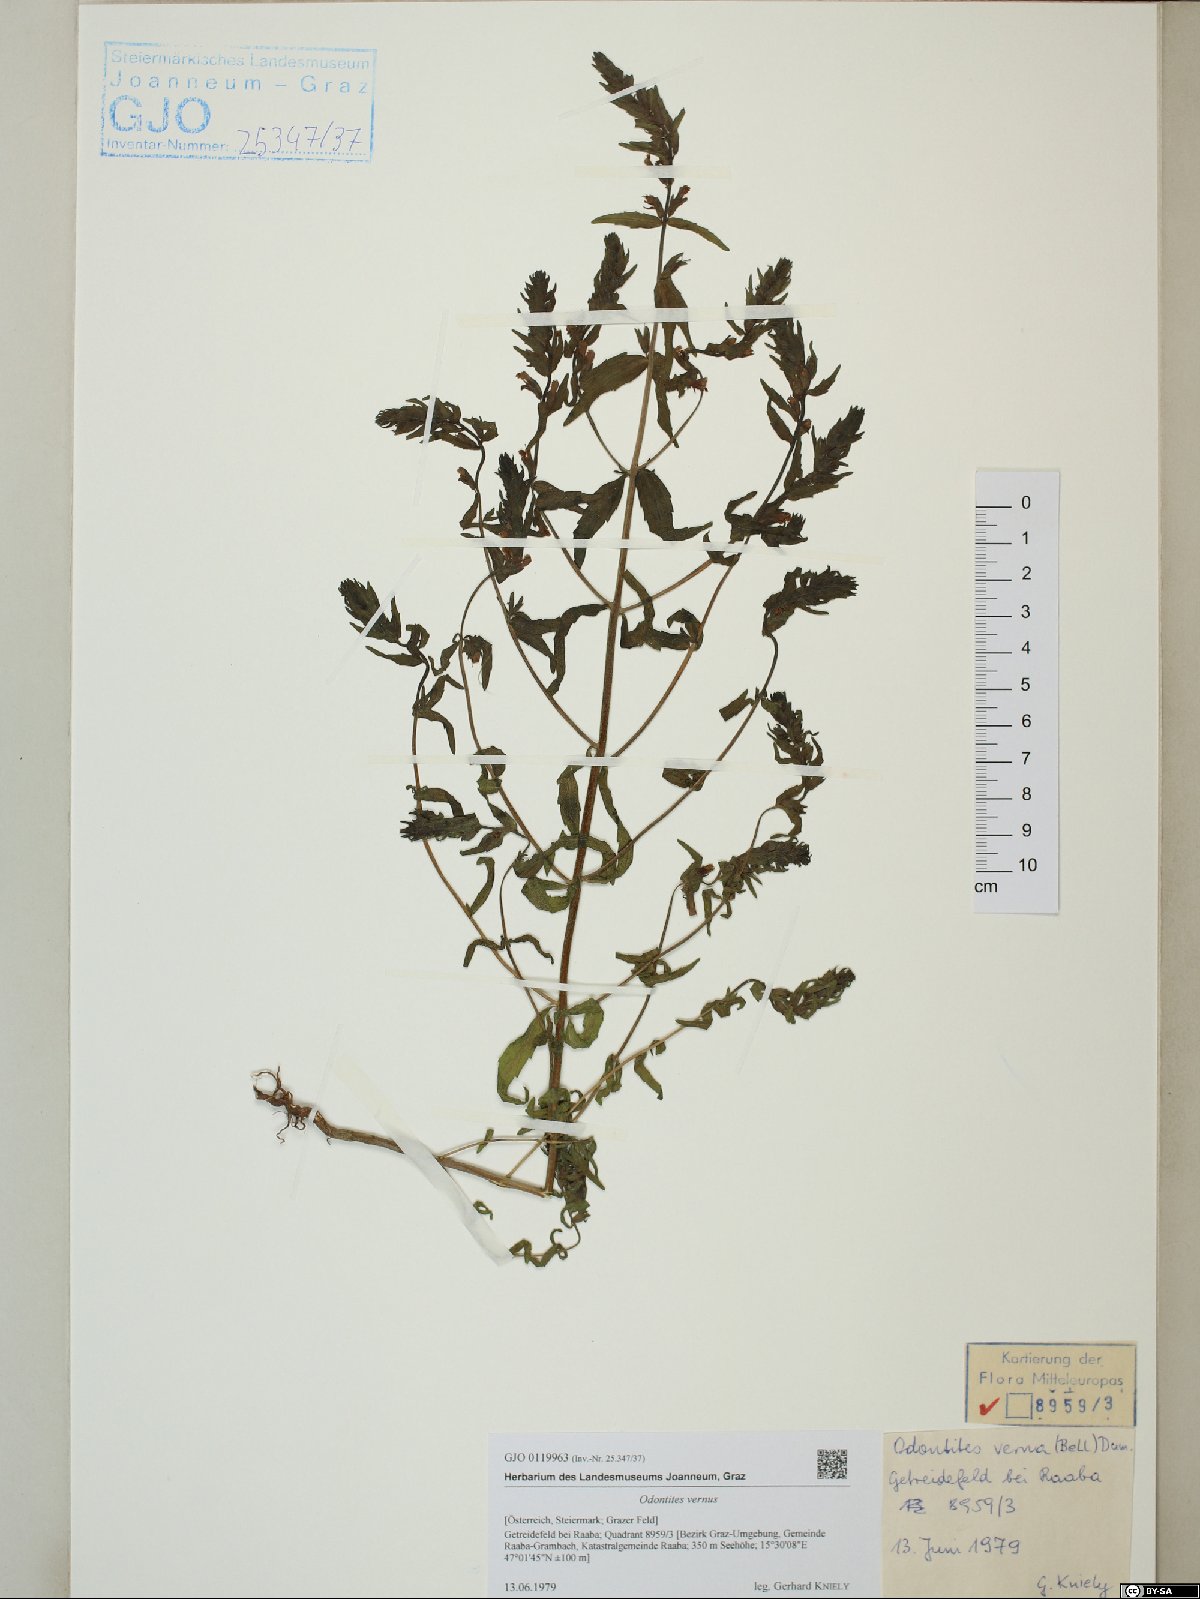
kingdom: Plantae
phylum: Tracheophyta
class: Magnoliopsida
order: Lamiales
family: Orobanchaceae
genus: Odontites
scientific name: Odontites vernus
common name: Red bartsia
